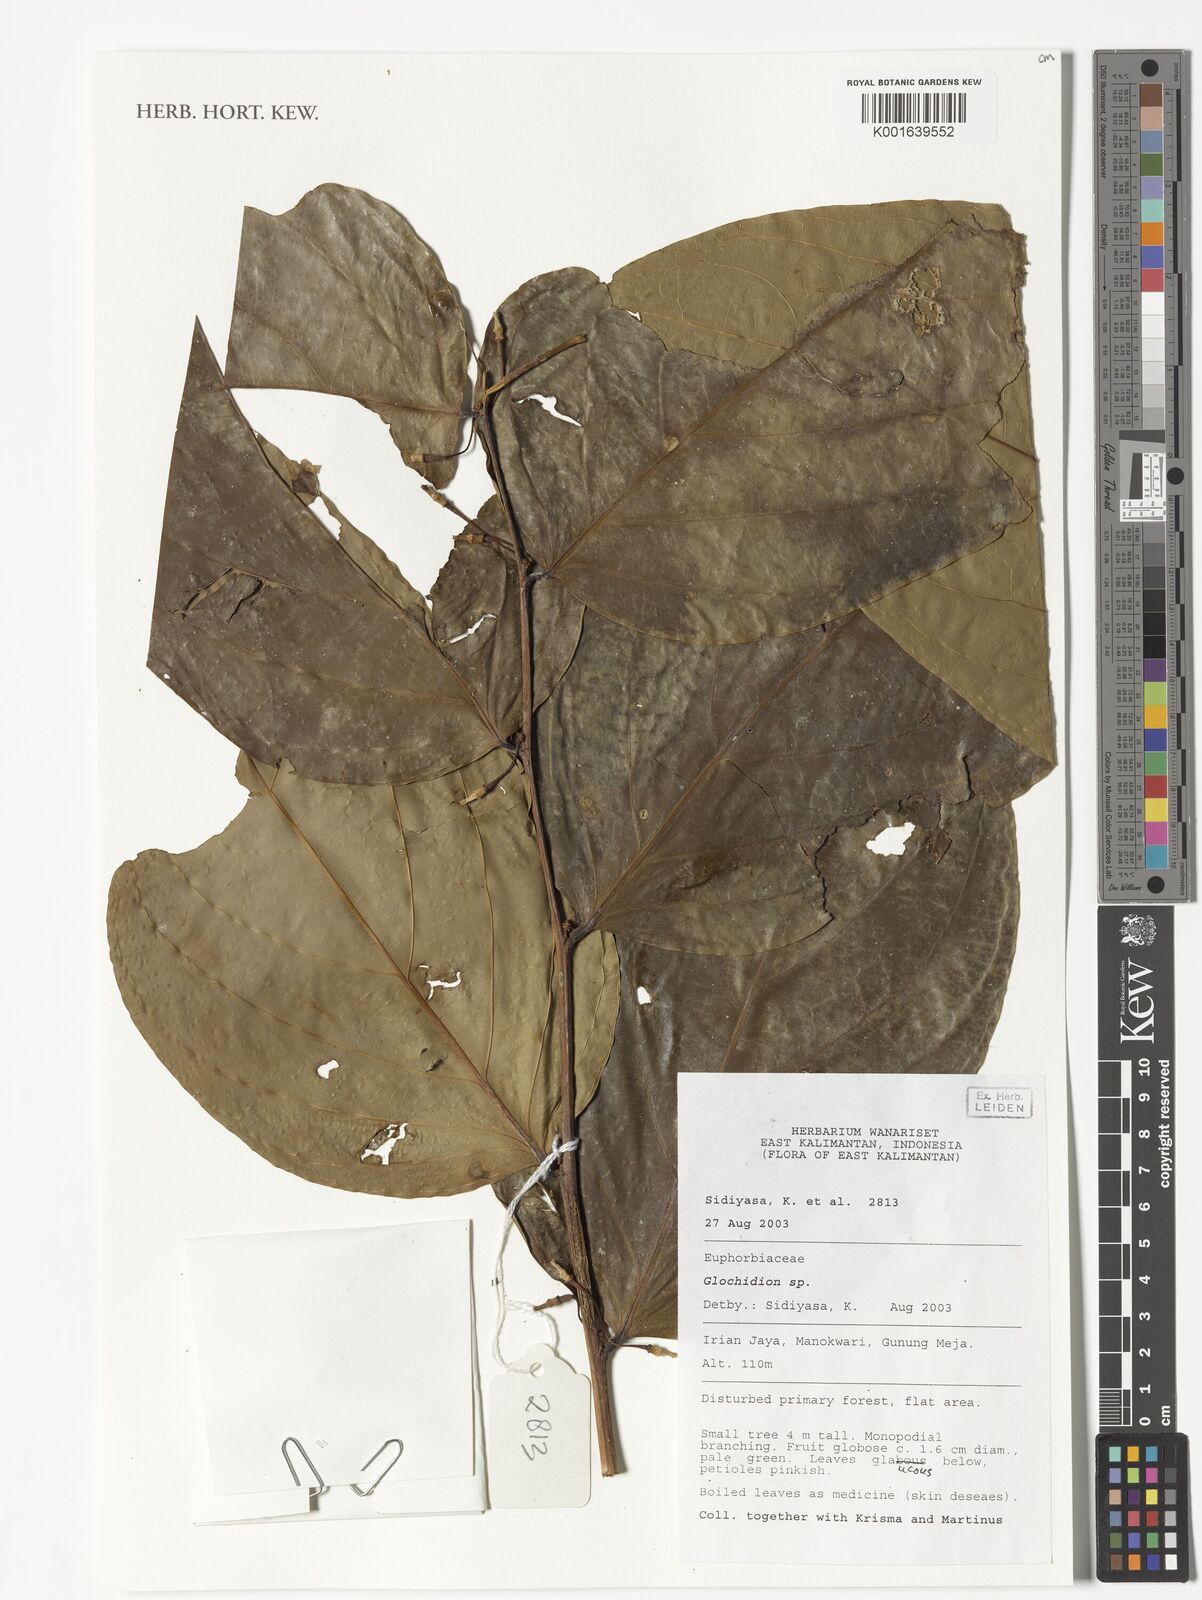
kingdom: Plantae
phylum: Tracheophyta
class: Magnoliopsida
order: Malpighiales
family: Phyllanthaceae
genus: Glochidion
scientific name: Glochidion
